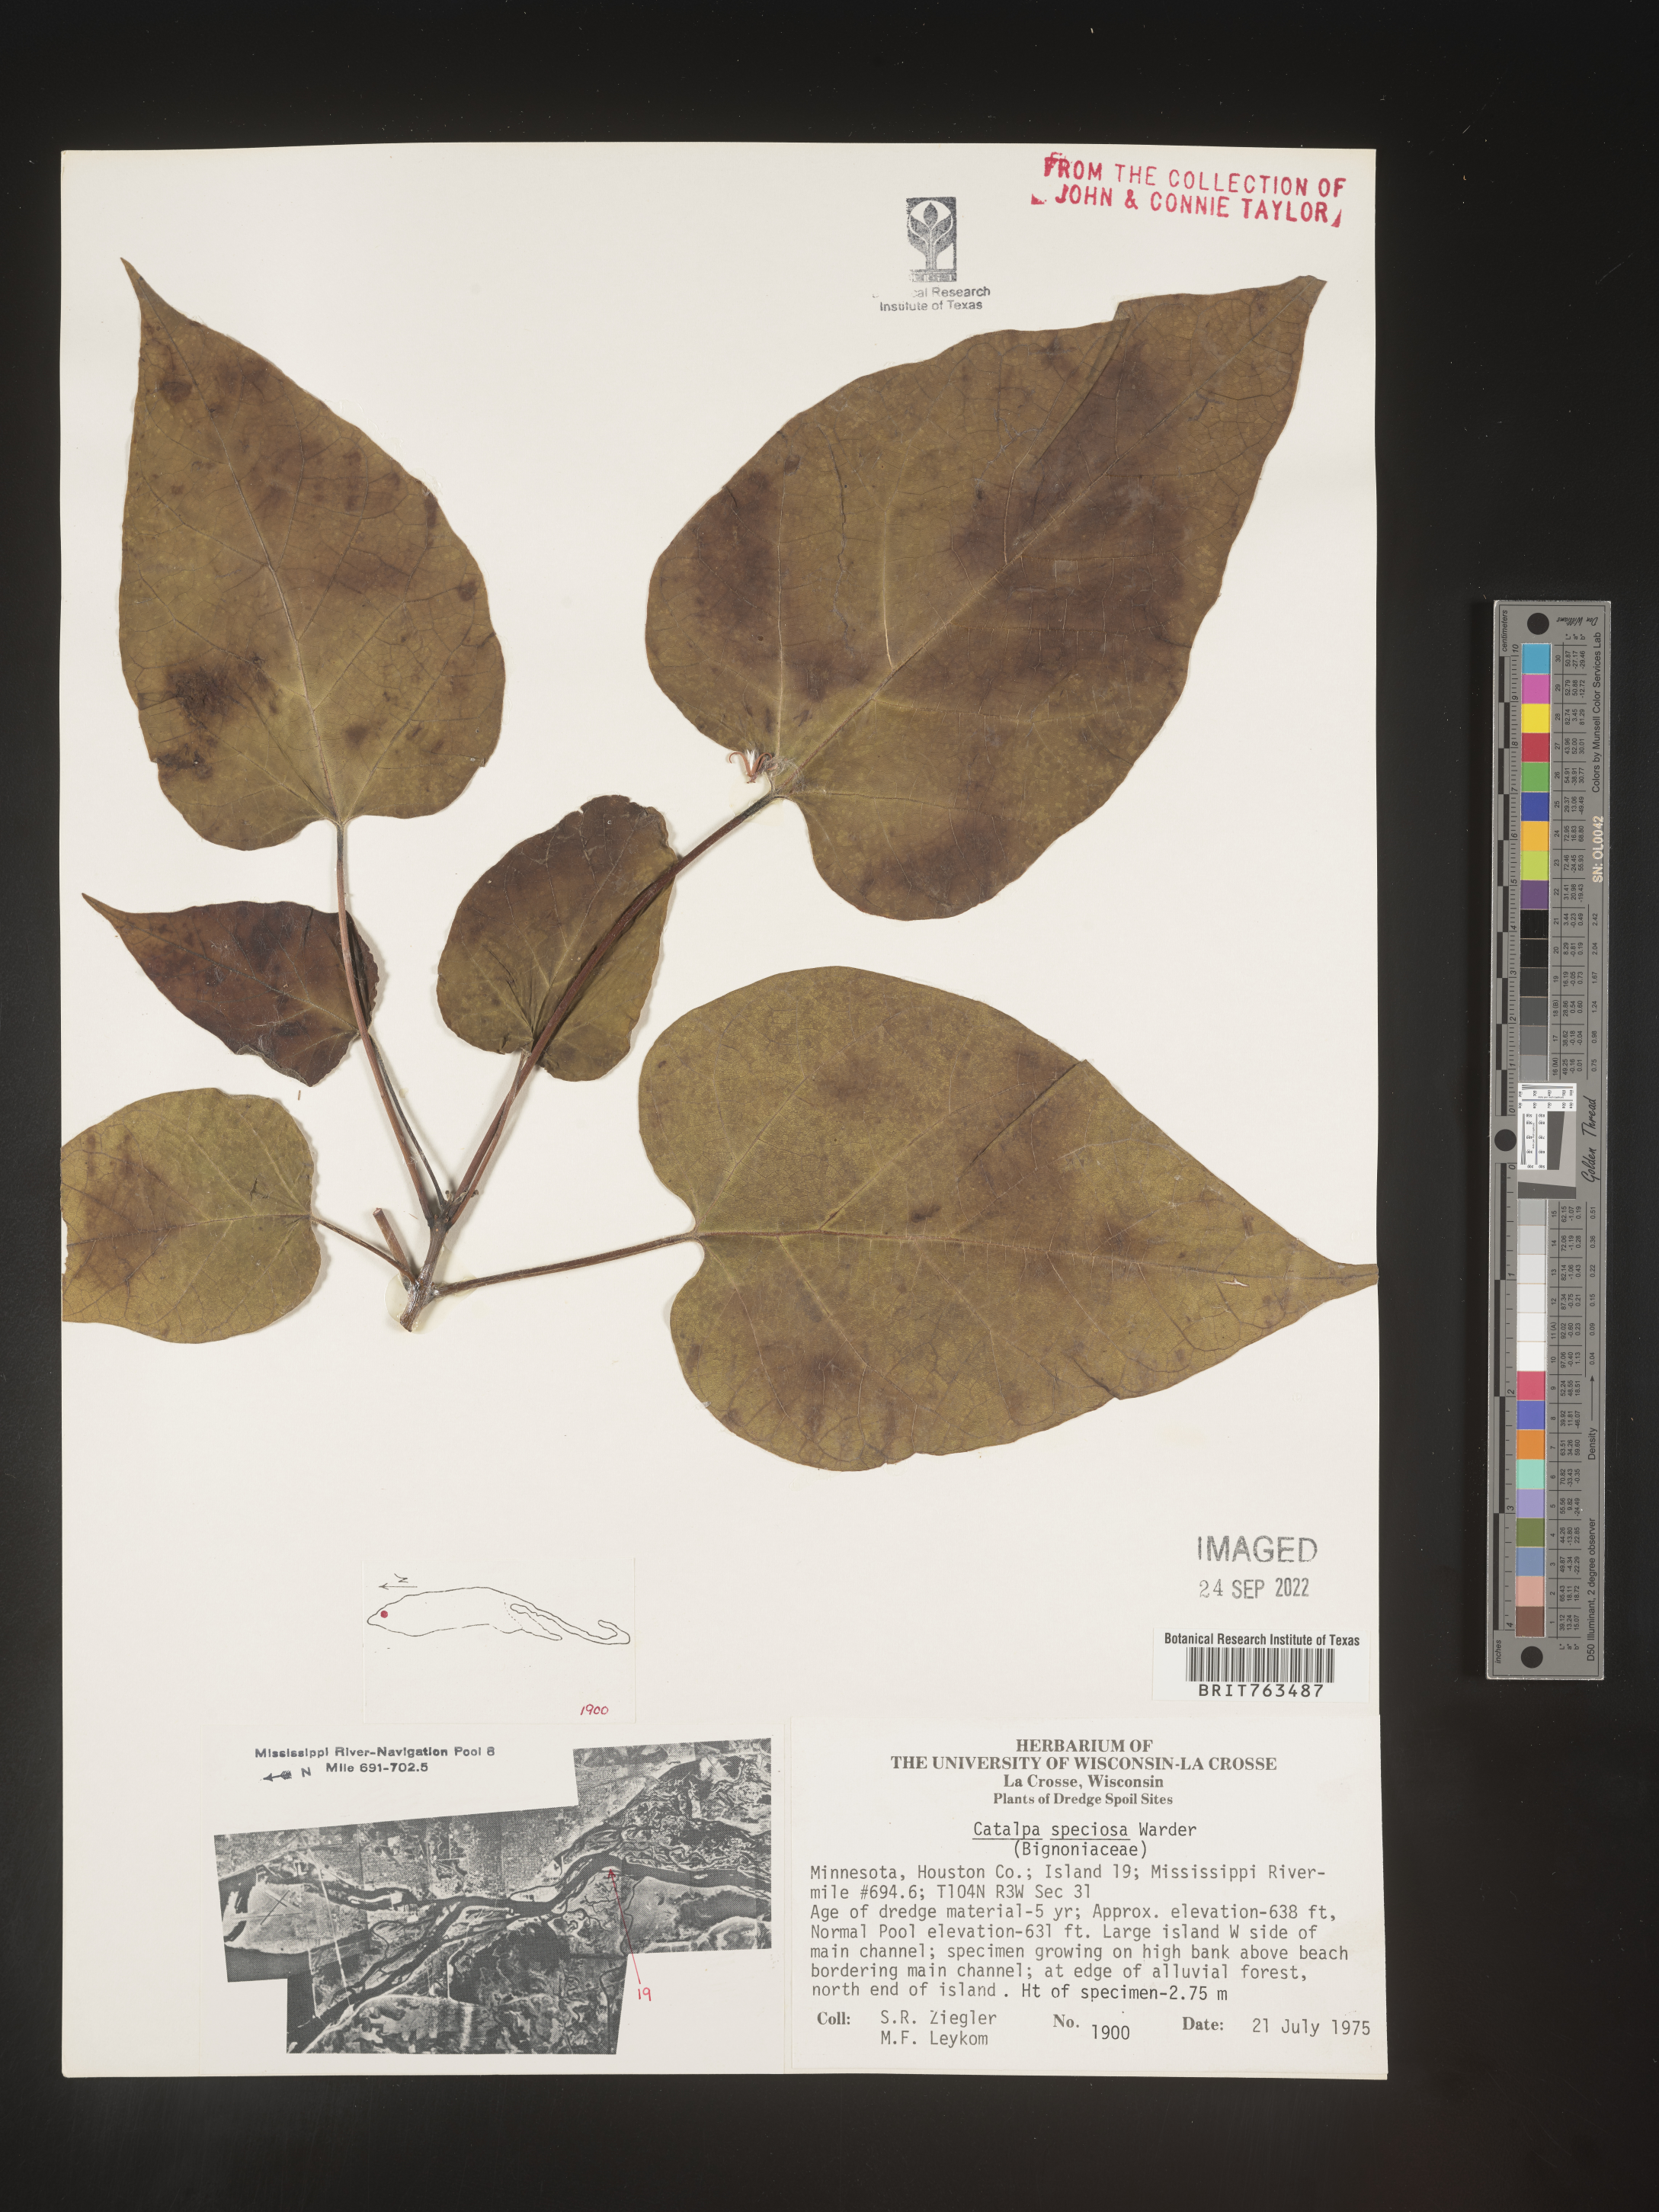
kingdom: Plantae
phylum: Tracheophyta
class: Magnoliopsida
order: Lamiales
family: Bignoniaceae
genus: Catalpa
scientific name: Catalpa speciosa
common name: Northern catalpa
